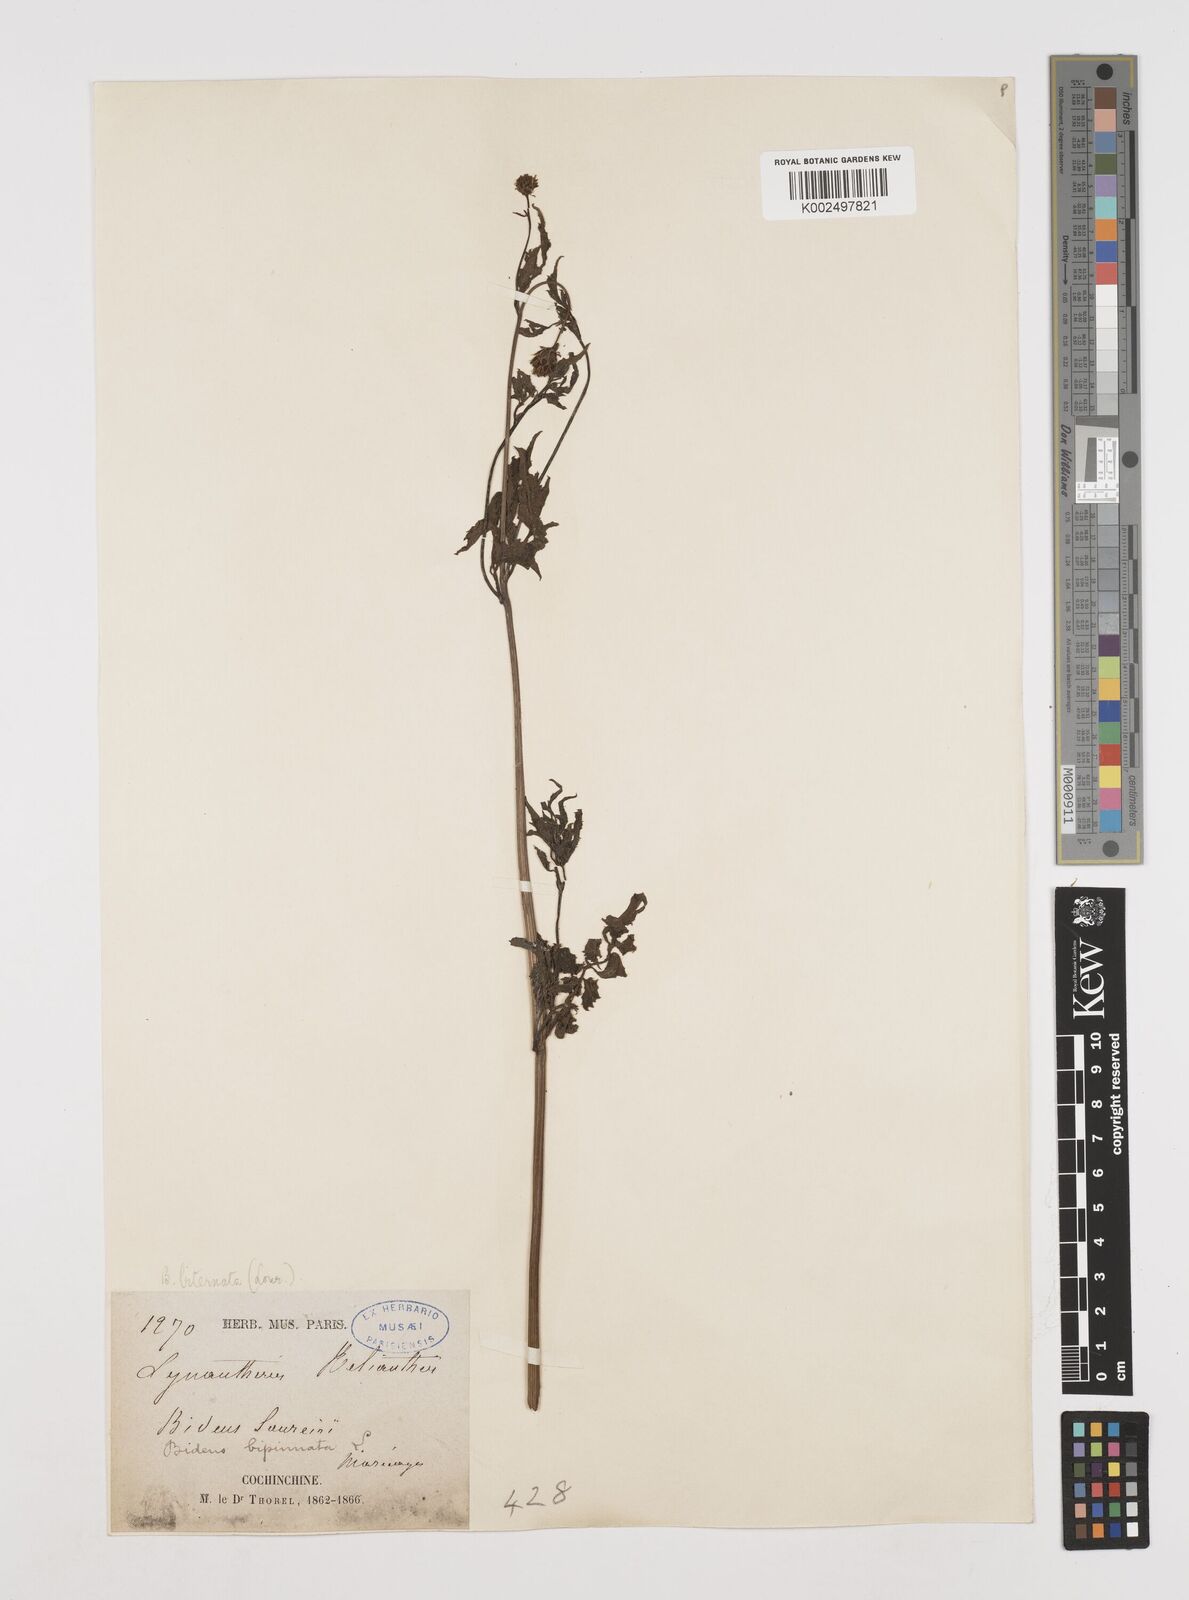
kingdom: Plantae
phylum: Tracheophyta
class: Magnoliopsida
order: Asterales
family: Asteraceae
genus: Bidens
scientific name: Bidens biternata
